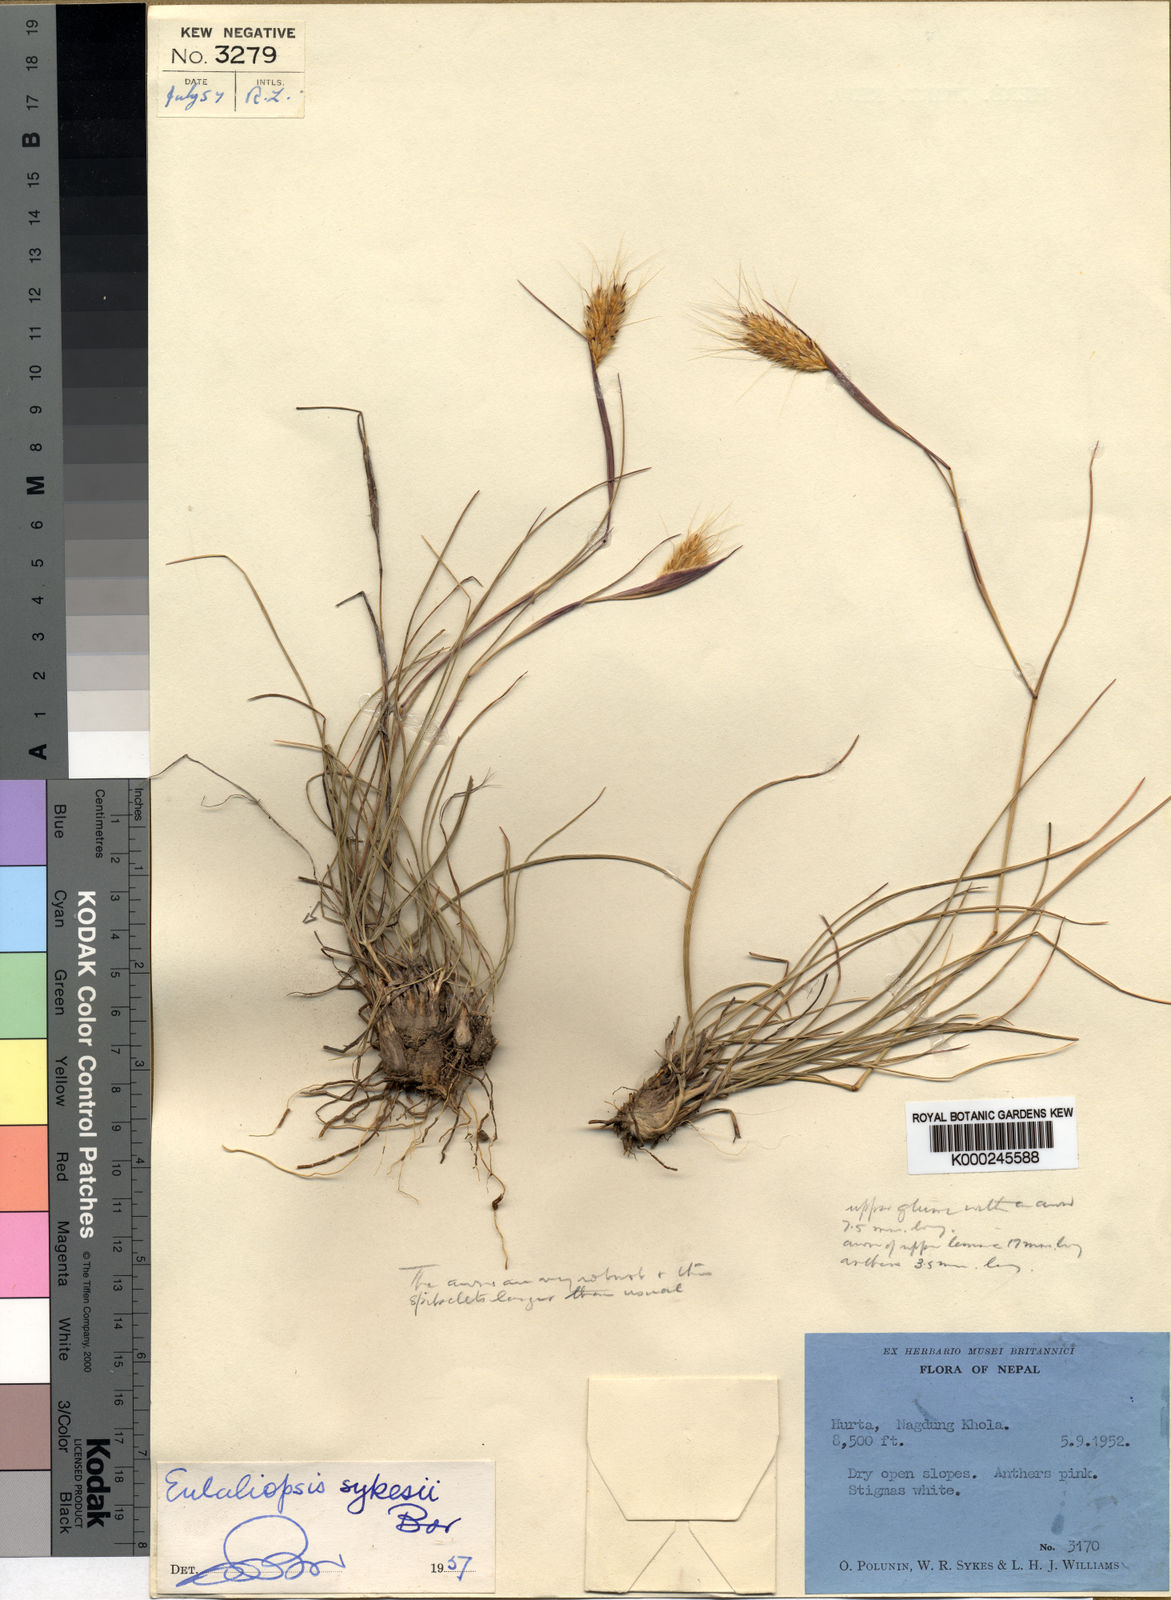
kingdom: Plantae
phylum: Tracheophyta
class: Liliopsida
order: Poales
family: Poaceae
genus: Eulaliopsis
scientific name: Eulaliopsis sykesii
